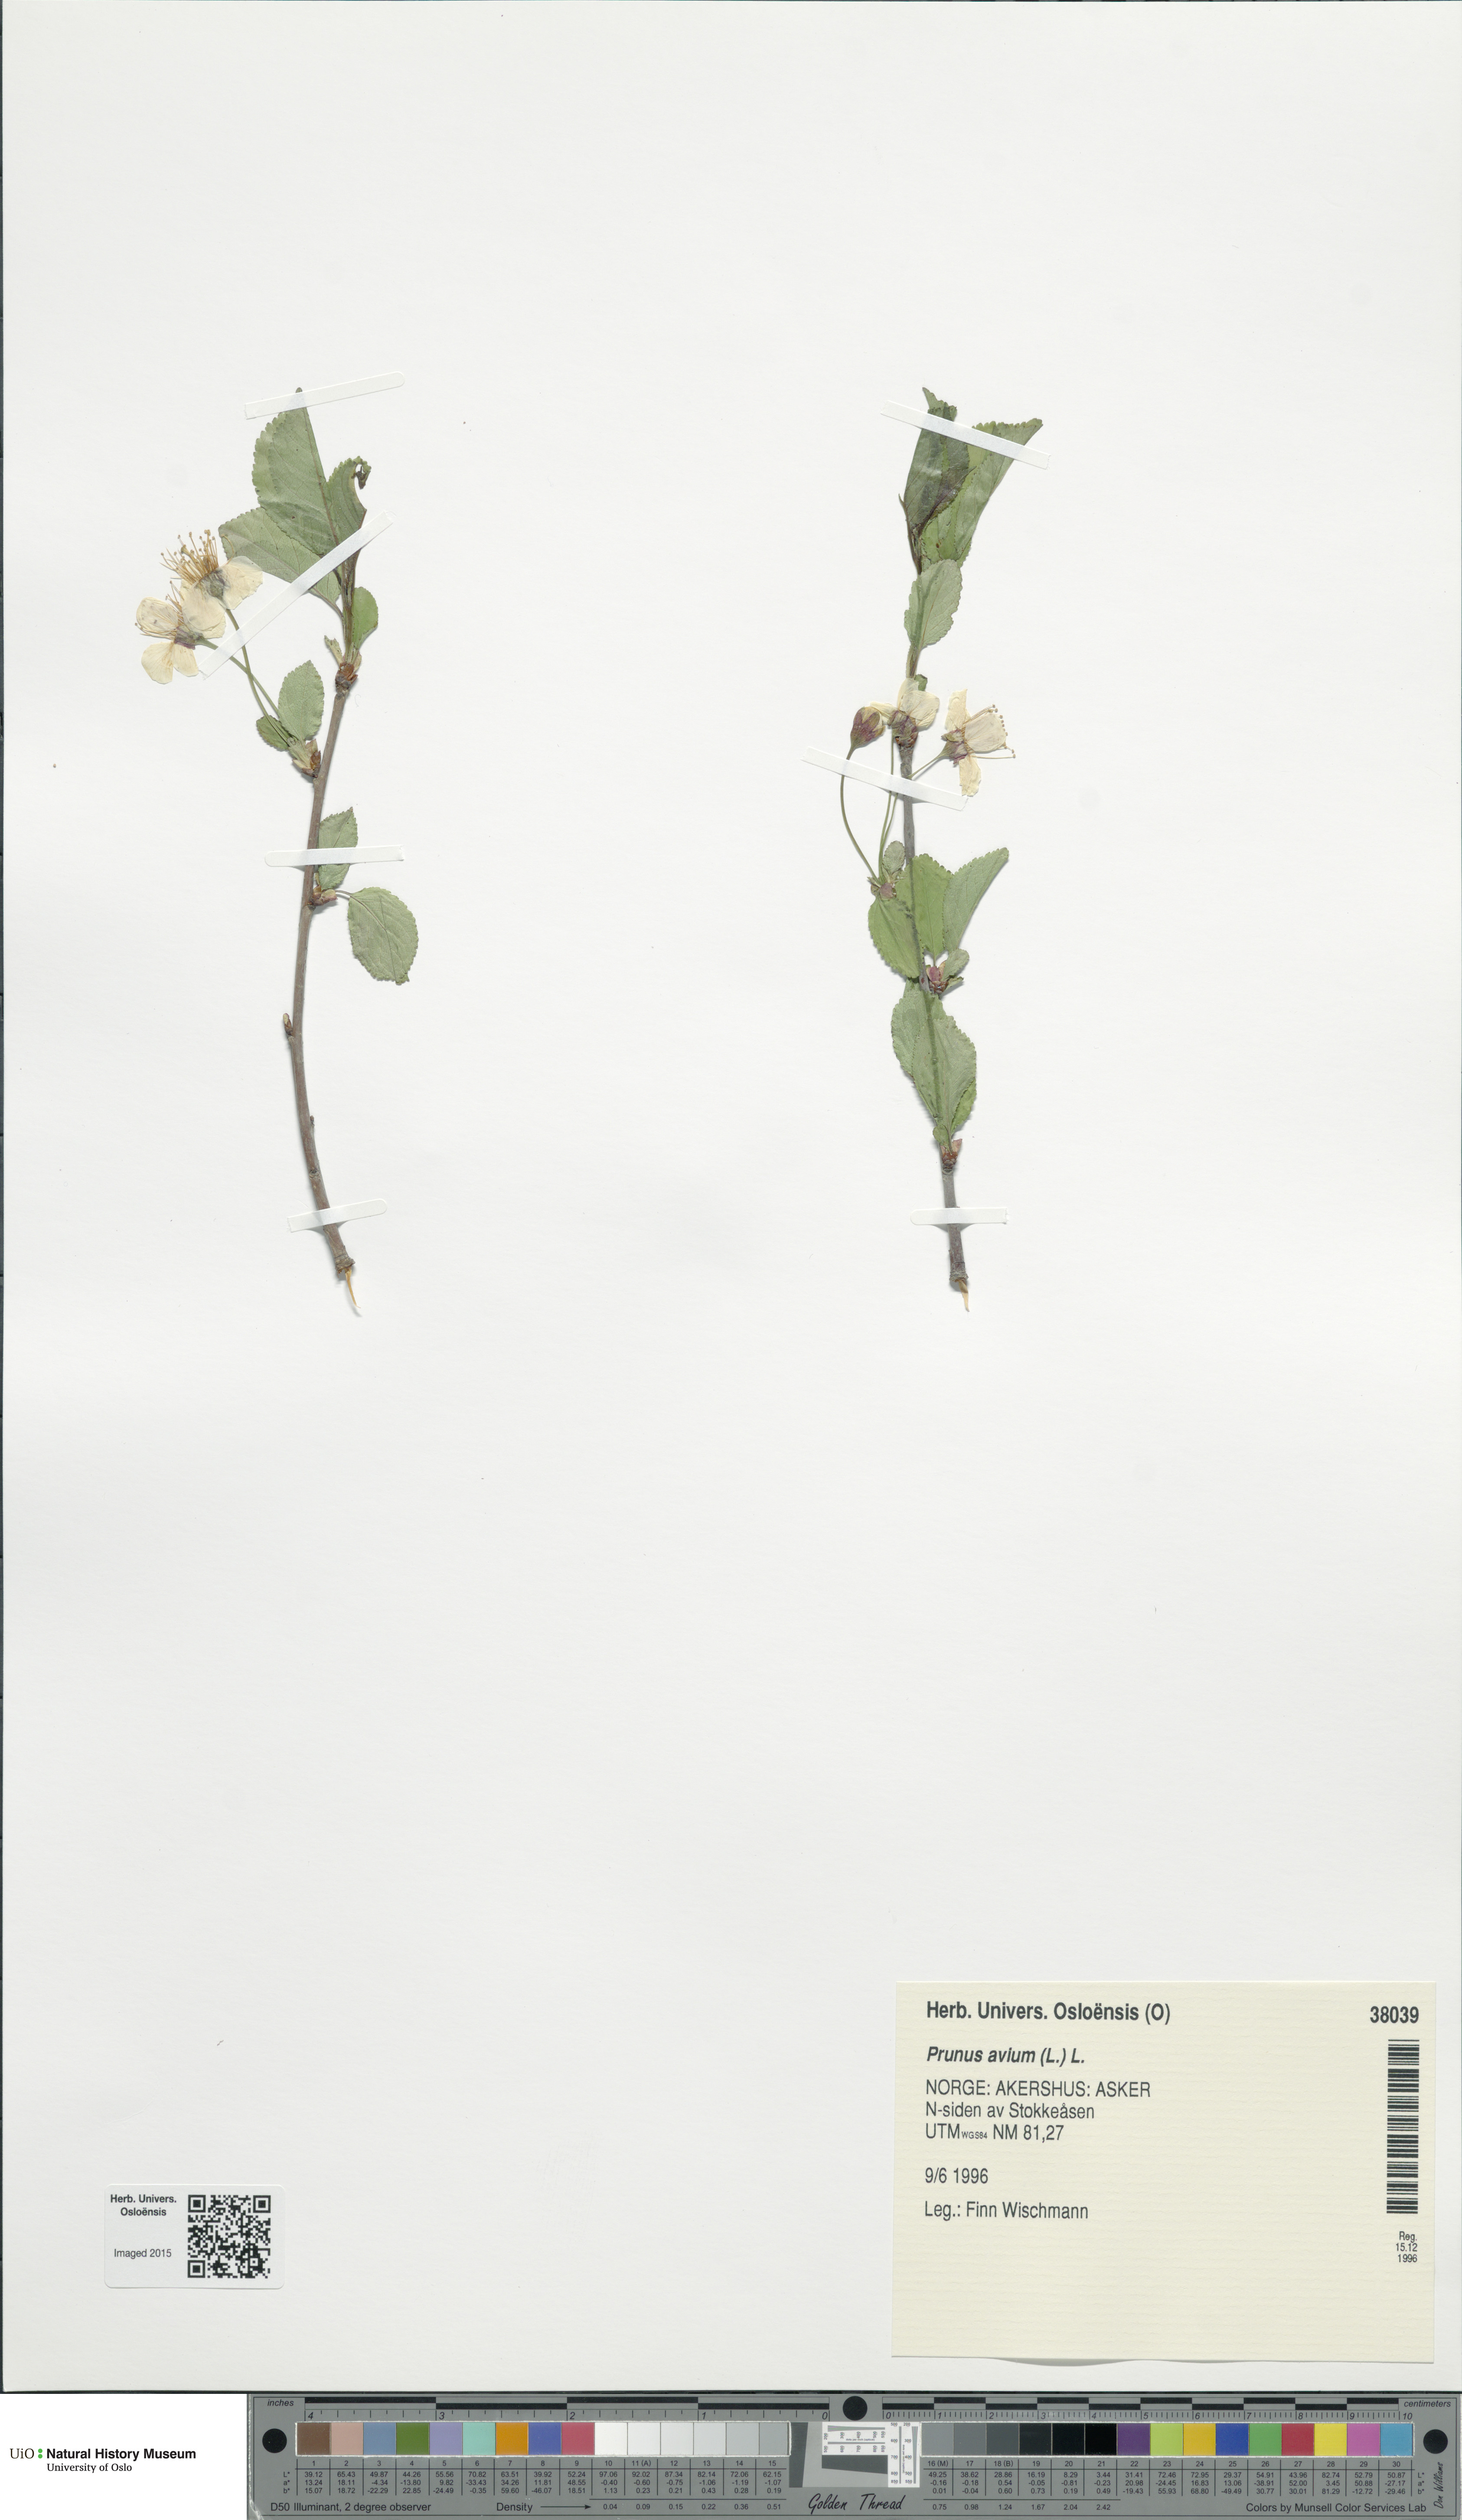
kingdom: Plantae
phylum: Tracheophyta
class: Magnoliopsida
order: Rosales
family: Rosaceae
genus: Prunus
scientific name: Prunus avium
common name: Sweet cherry
